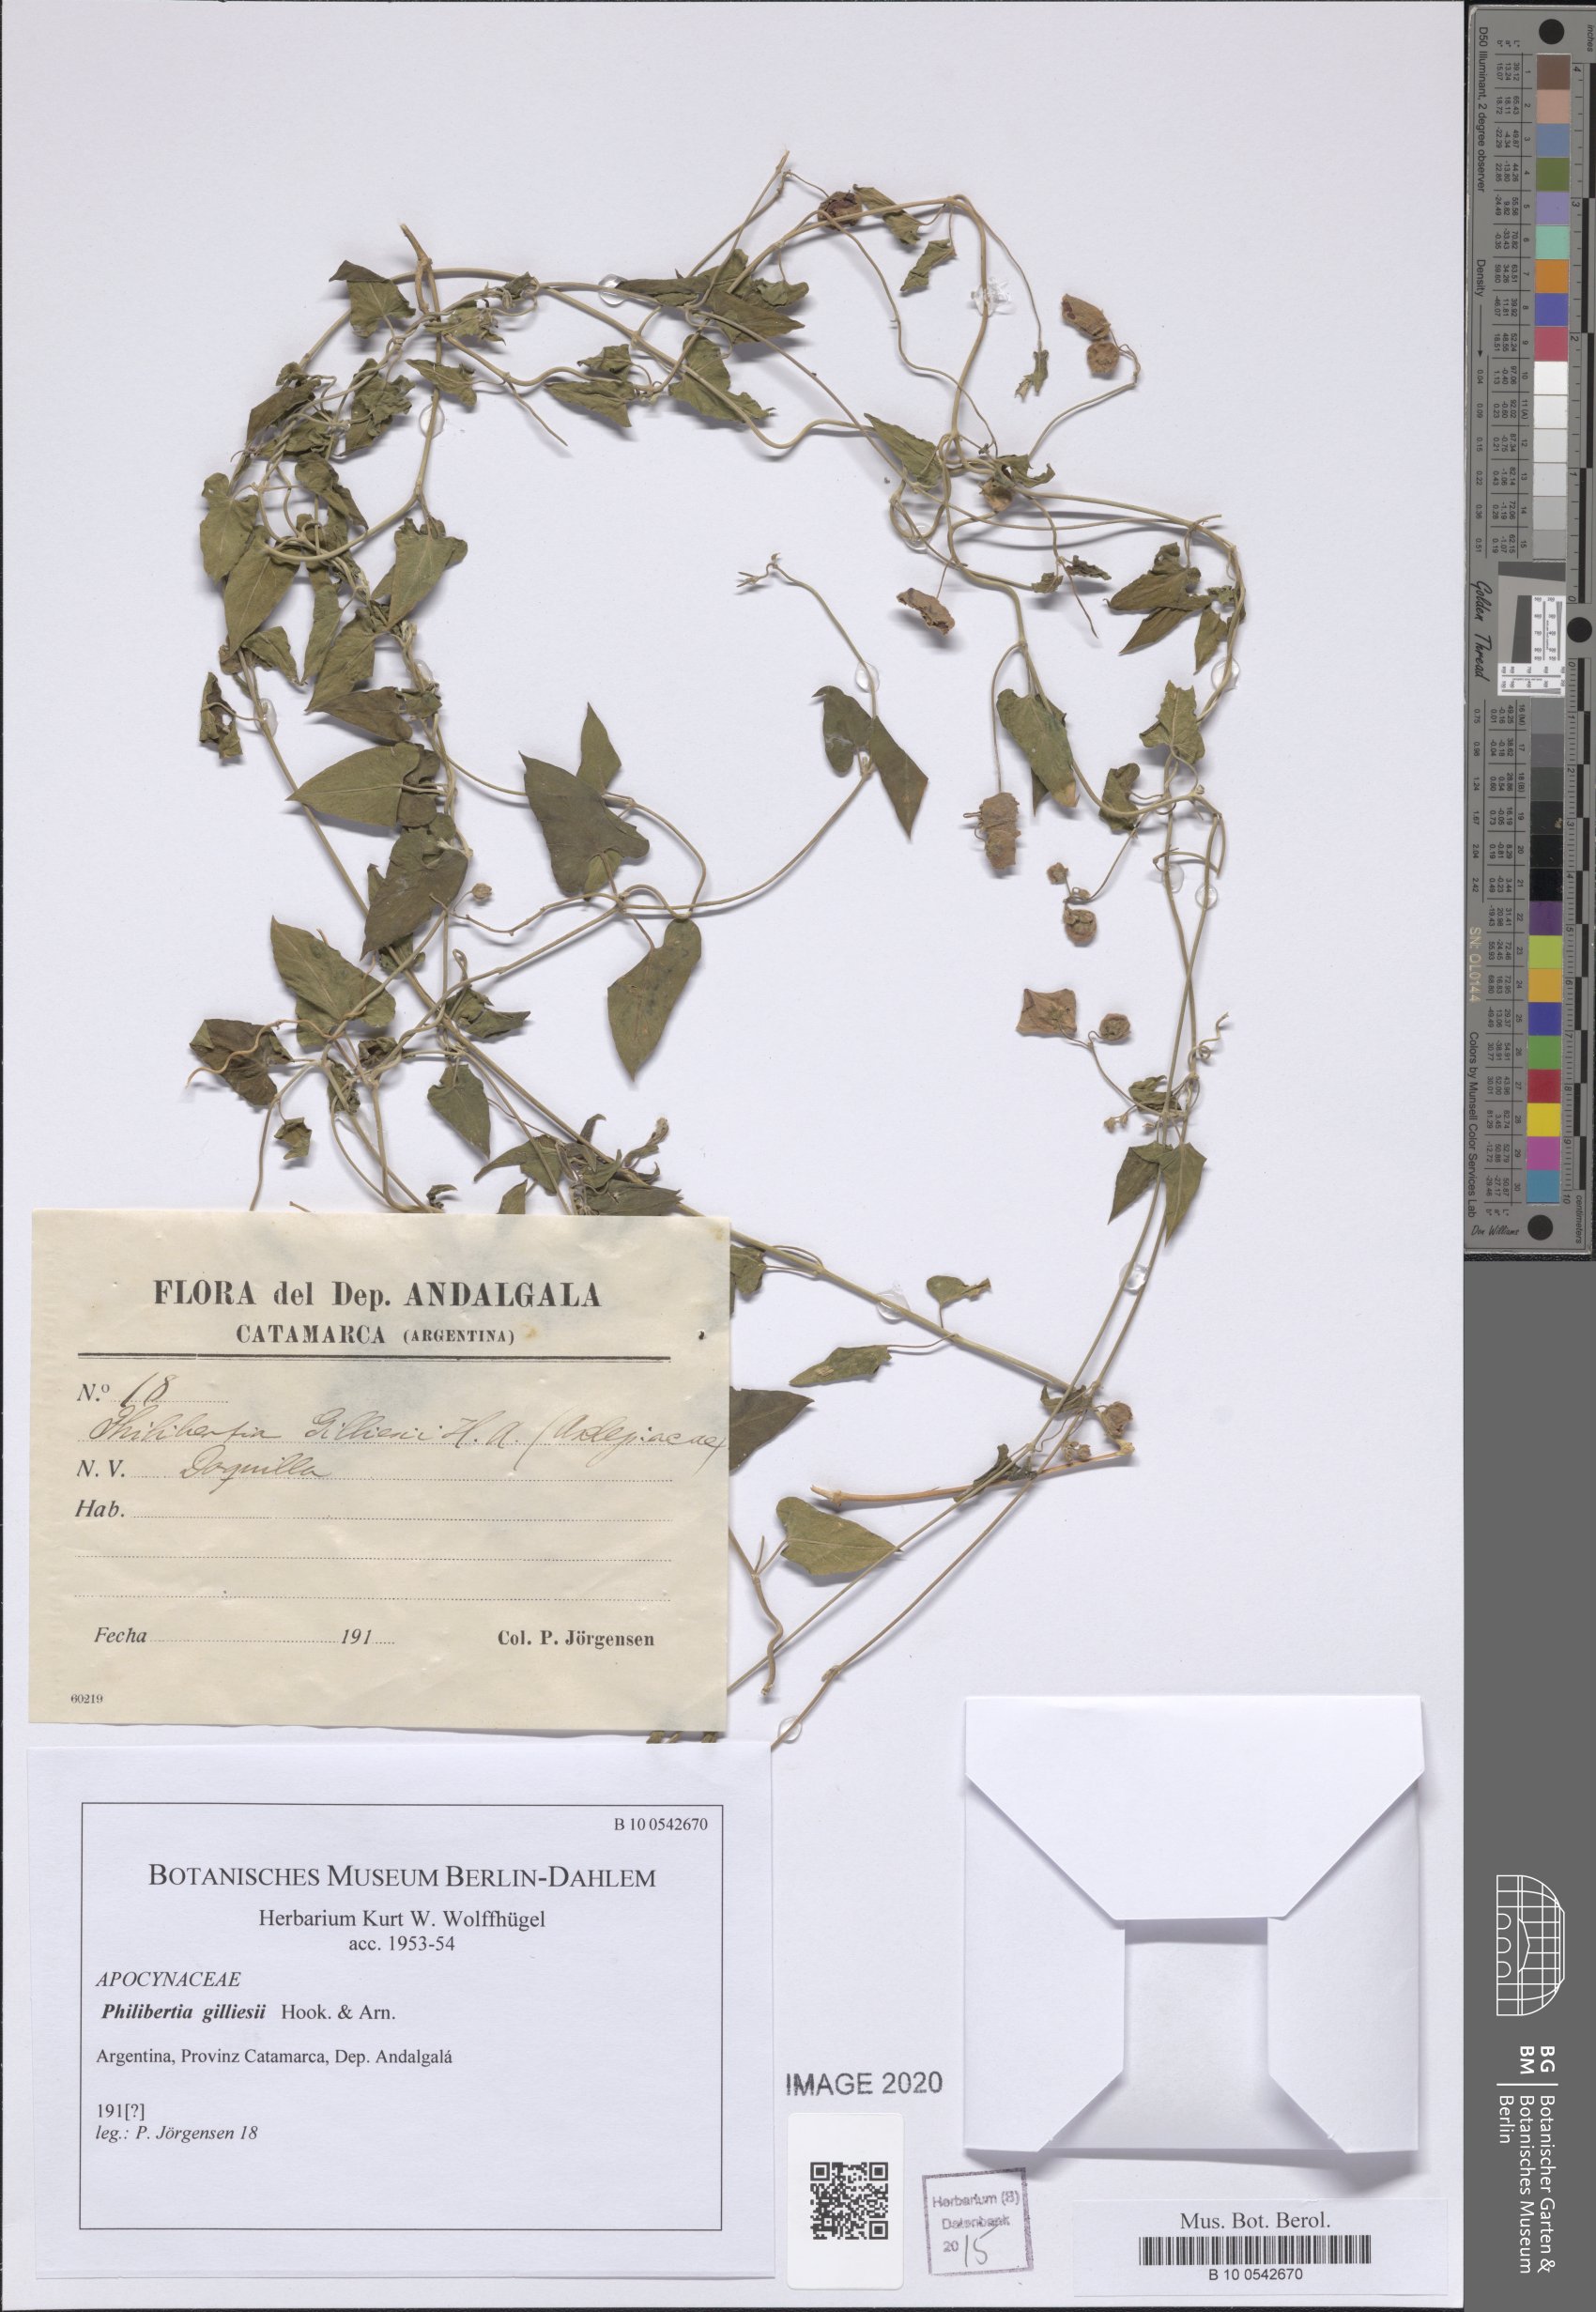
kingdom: Plantae
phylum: Tracheophyta
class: Magnoliopsida
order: Gentianales
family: Apocynaceae
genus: Philibertia
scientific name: Philibertia gilliesii
